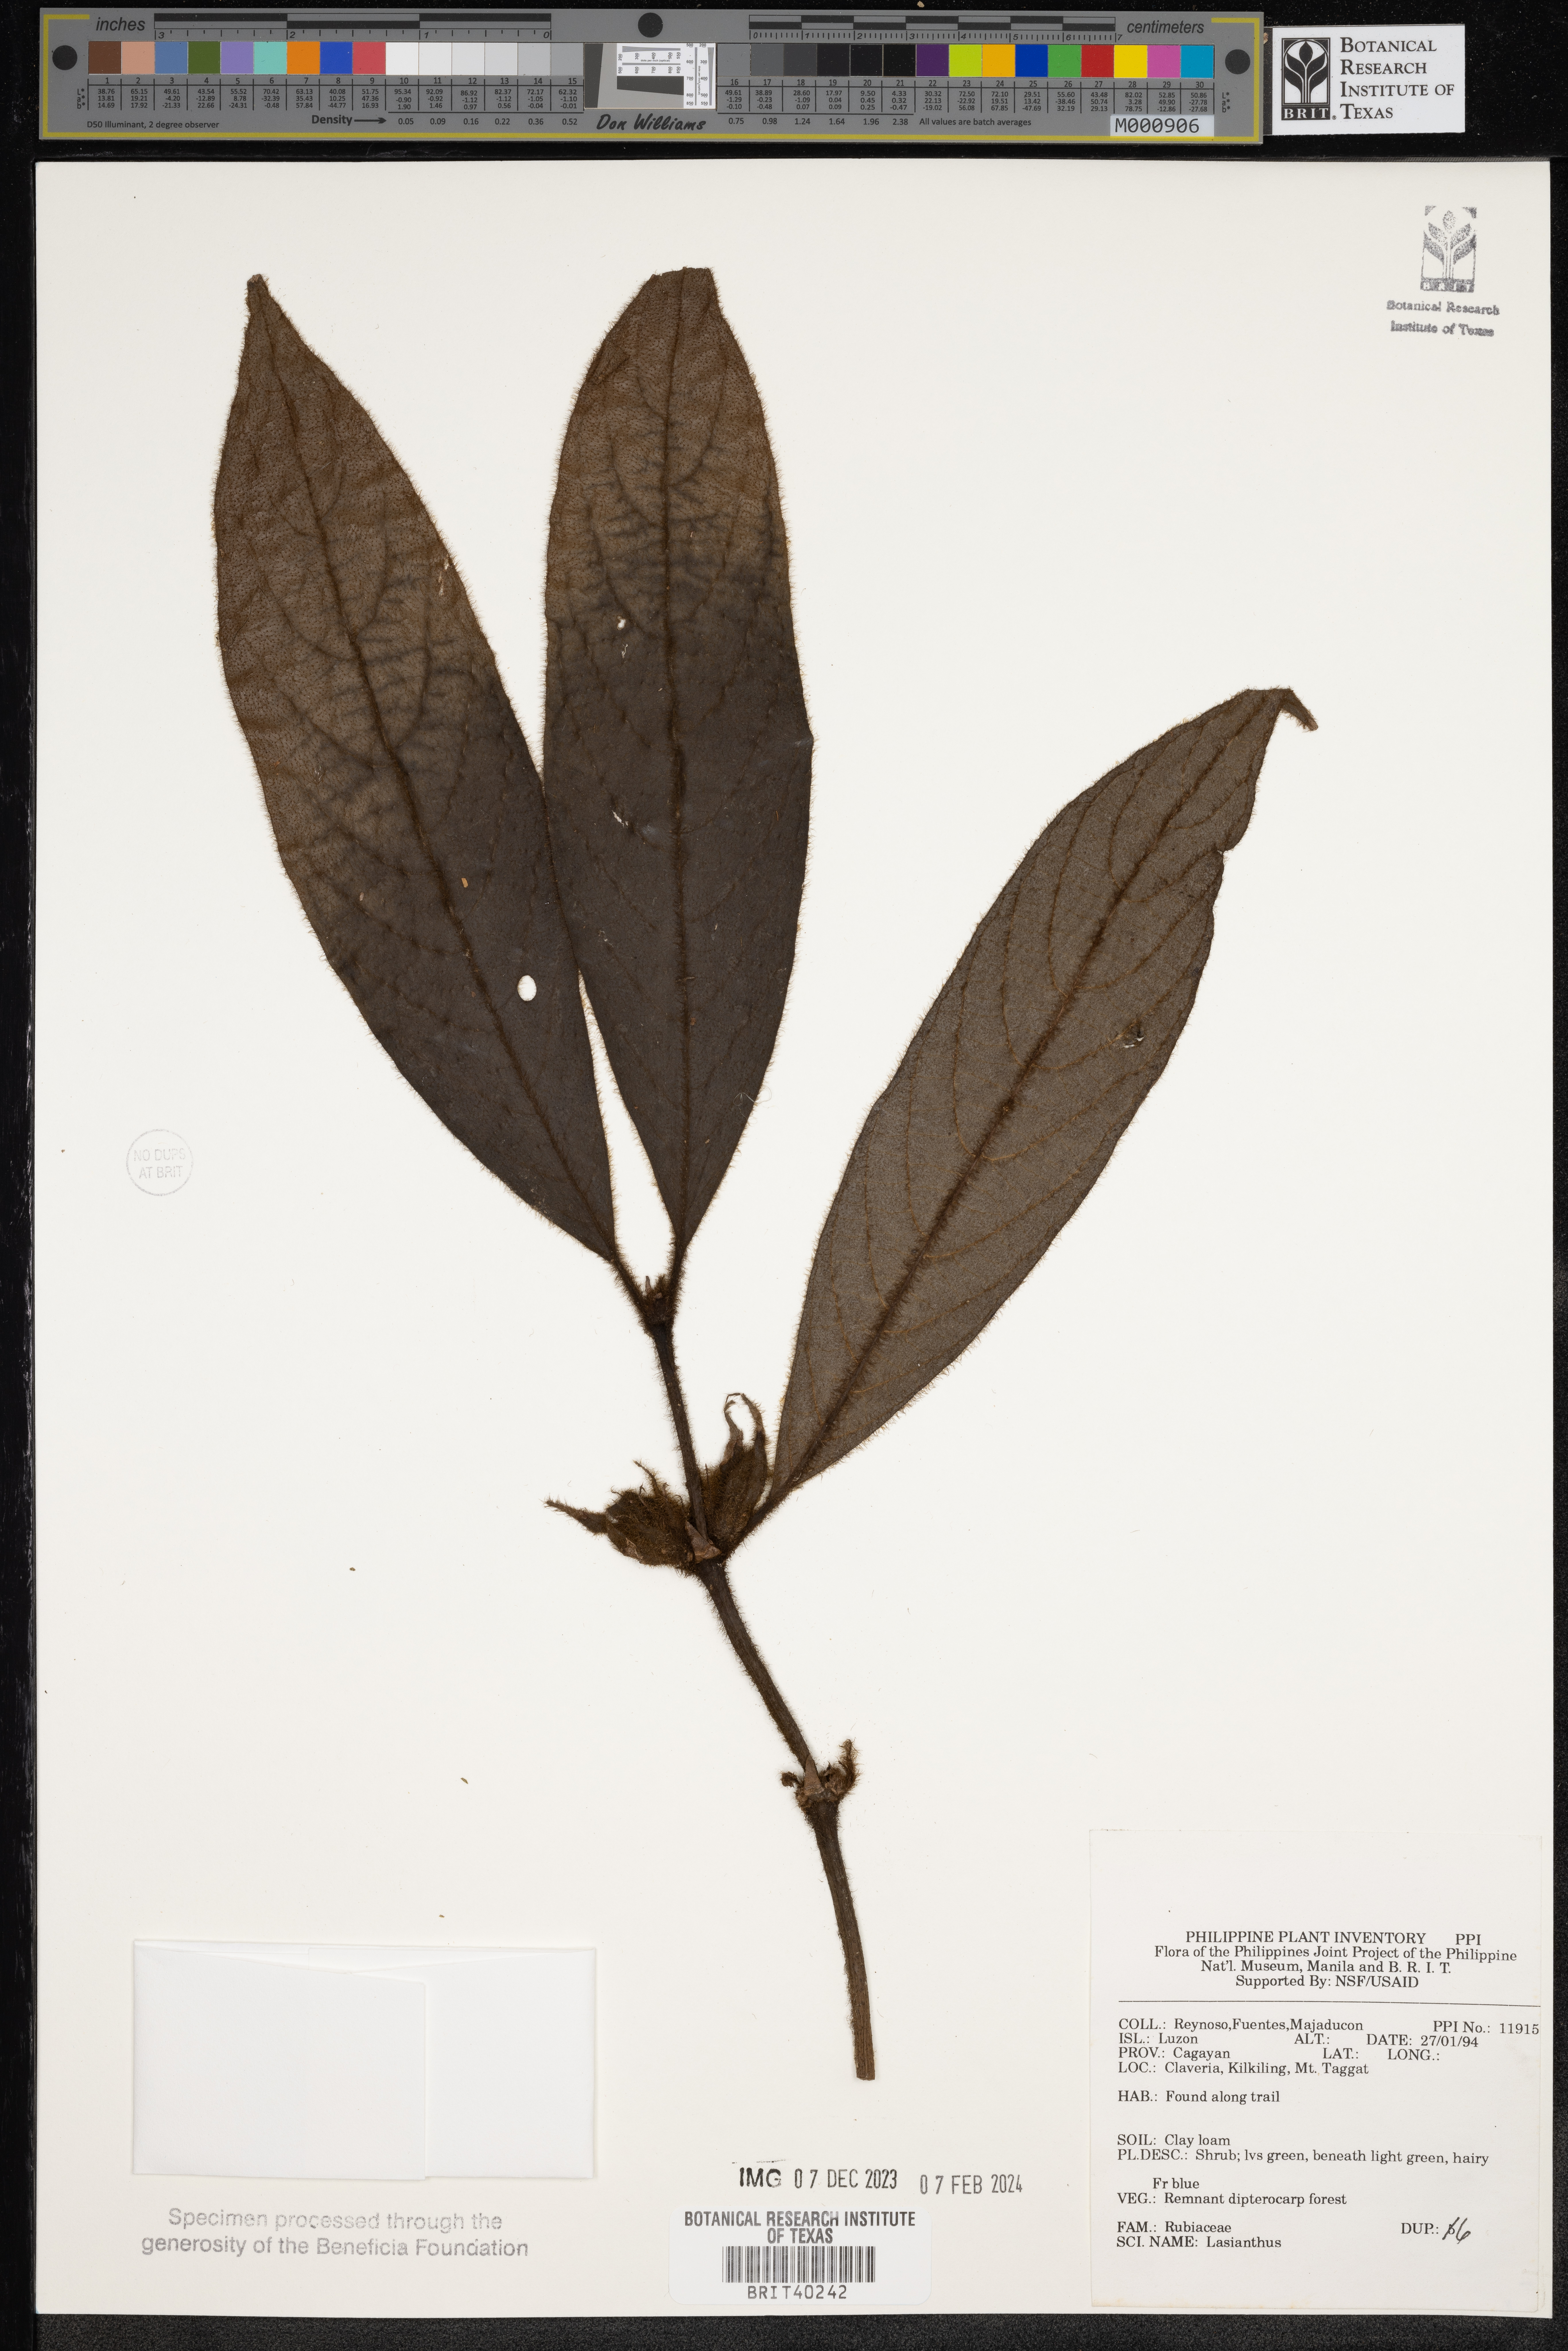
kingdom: Plantae
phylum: Tracheophyta
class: Magnoliopsida
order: Gentianales
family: Rubiaceae
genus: Lasianthus
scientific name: Lasianthus
